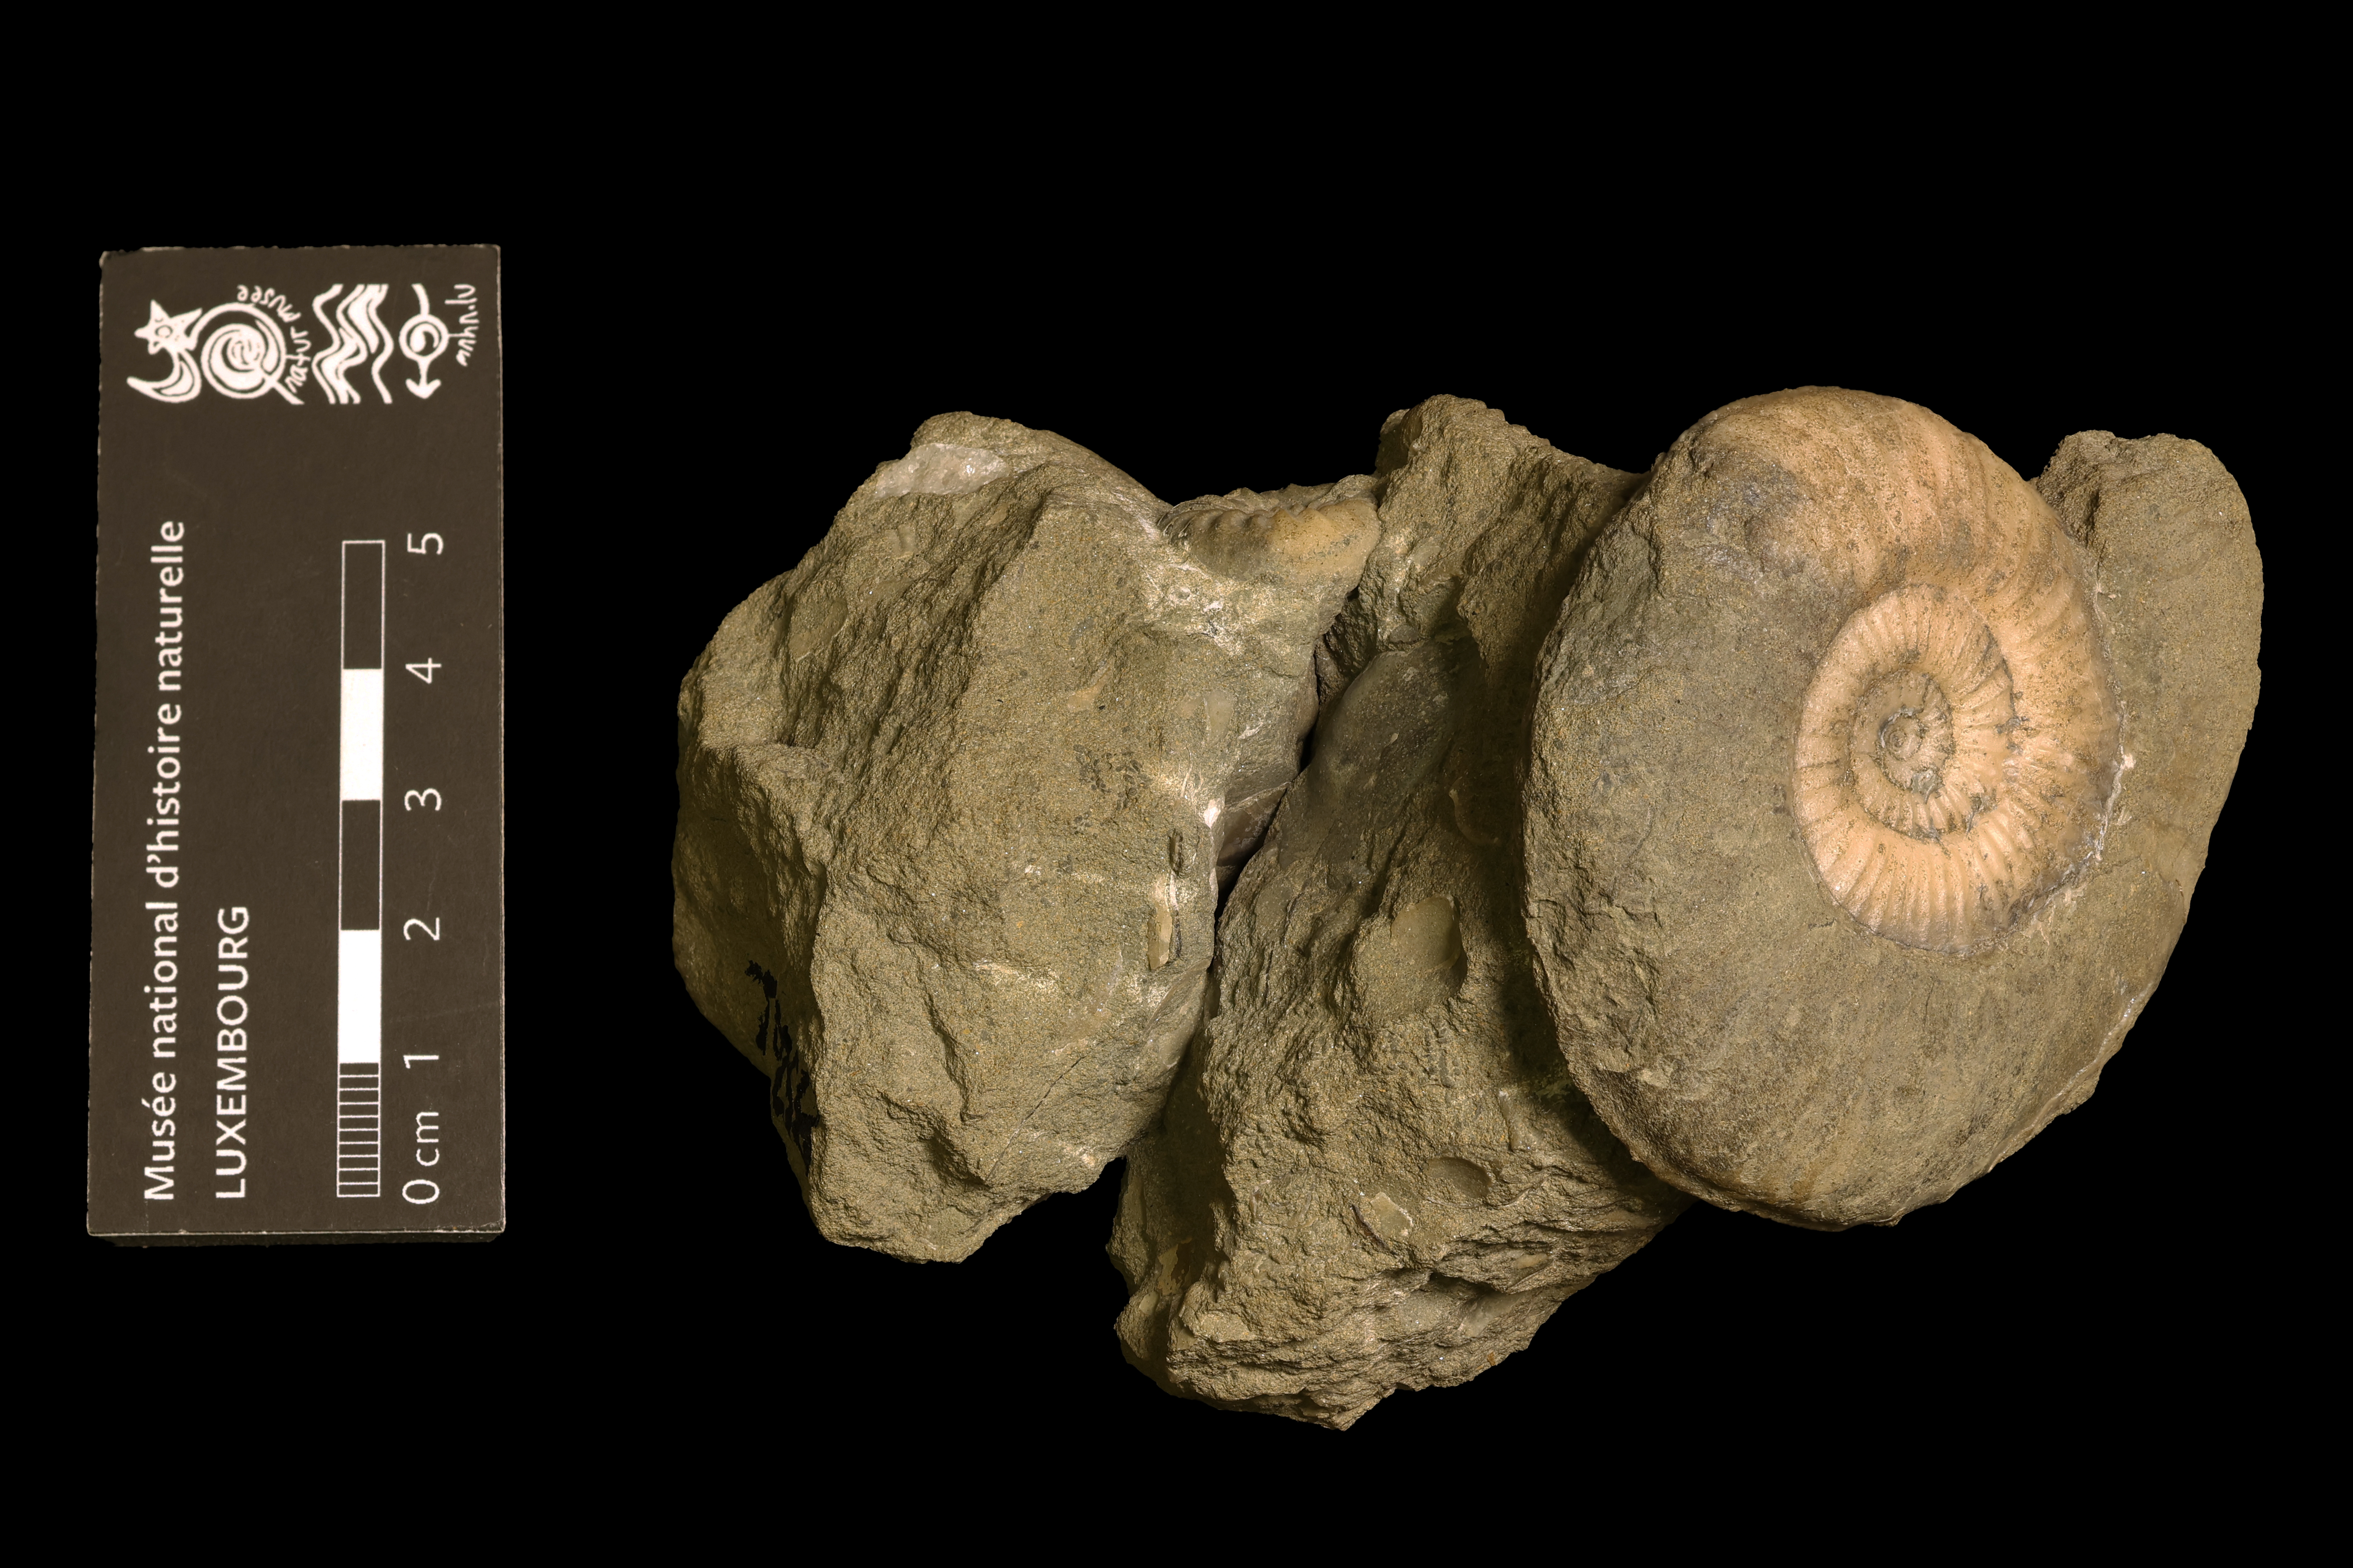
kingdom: Animalia
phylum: Mollusca
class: Cephalopoda
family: Hildoceratidae
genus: Dumortieria
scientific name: Dumortieria pseudoradiosa
